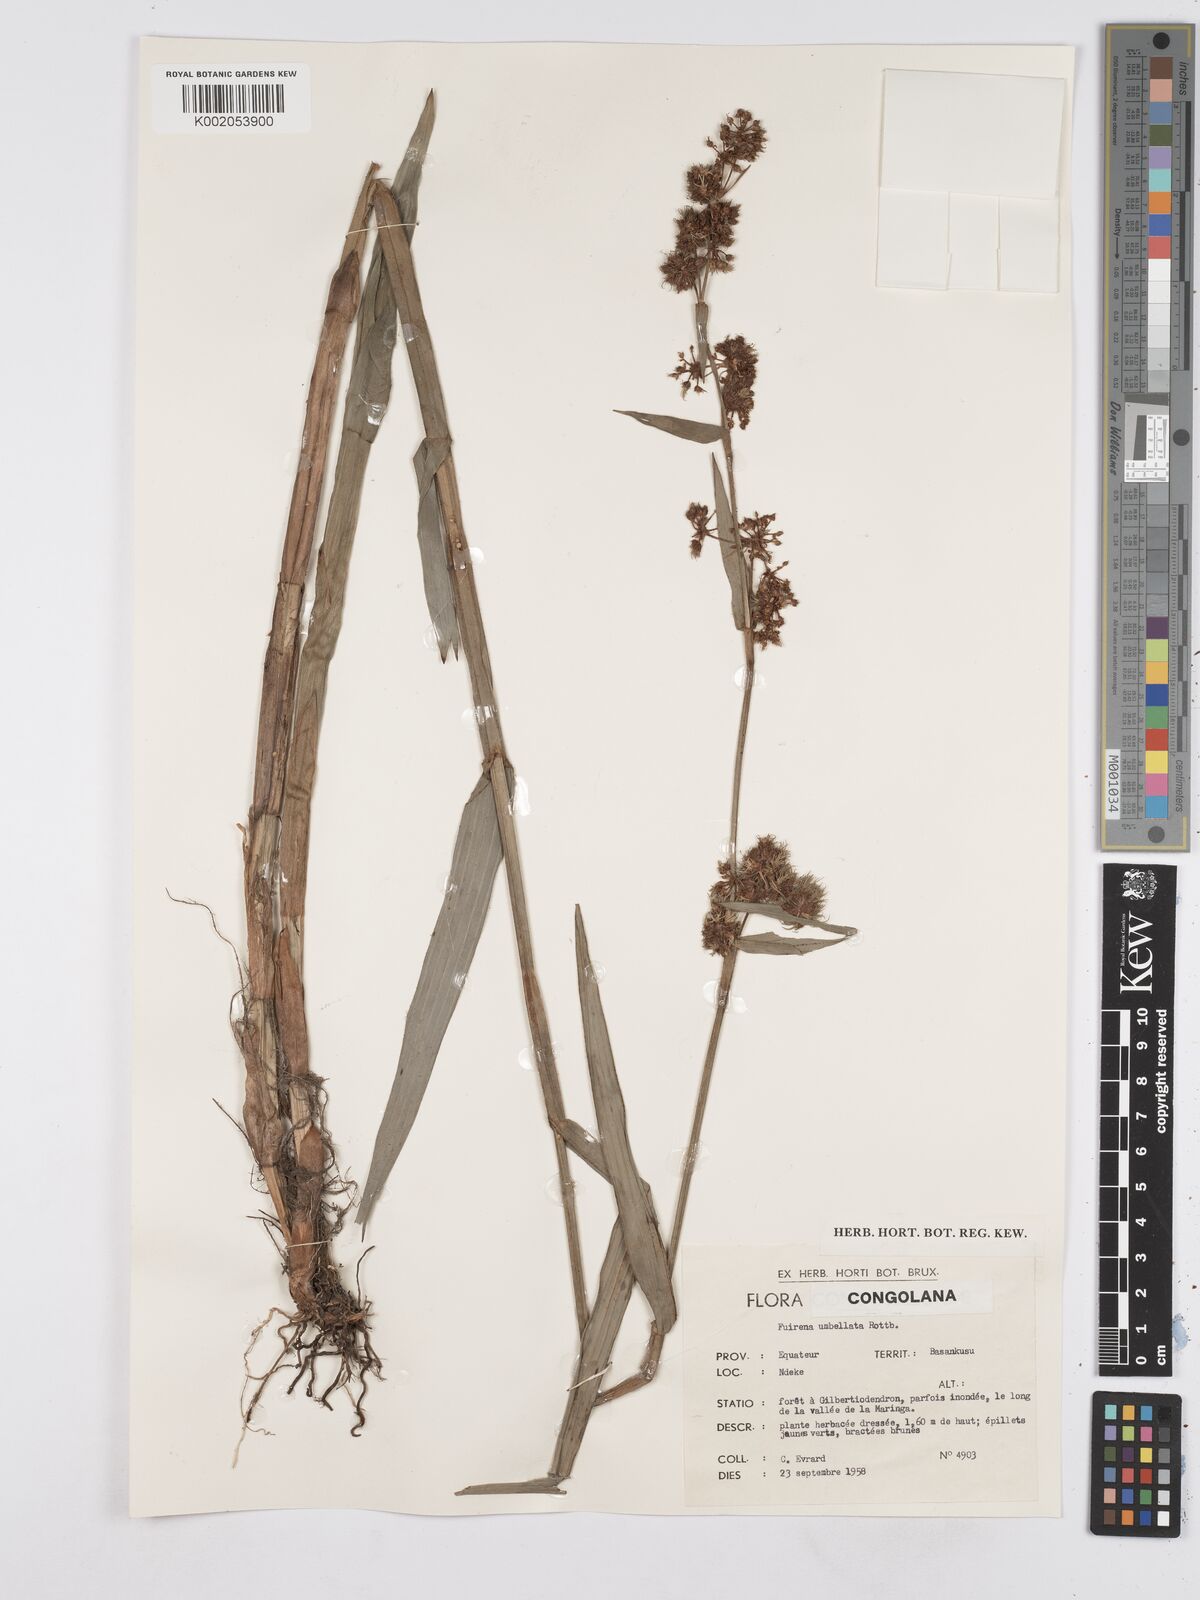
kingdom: Plantae
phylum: Tracheophyta
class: Liliopsida
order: Poales
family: Cyperaceae
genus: Fuirena
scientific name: Fuirena umbellata
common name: Yefen
